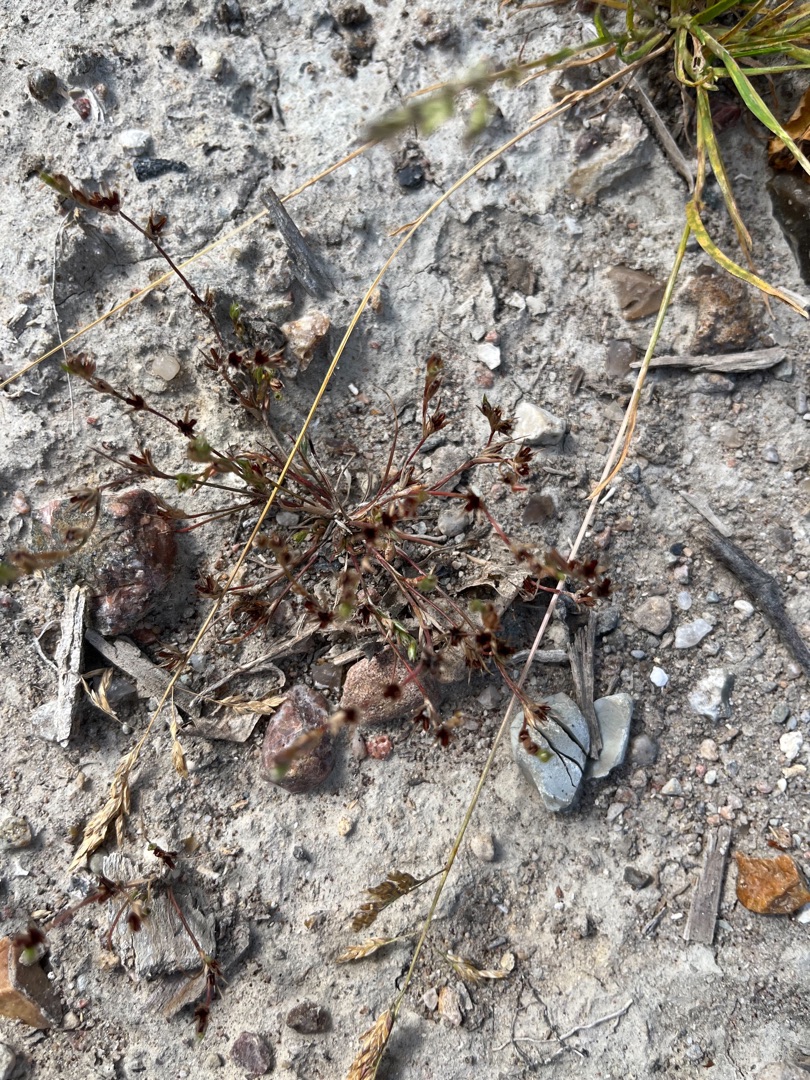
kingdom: Plantae
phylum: Tracheophyta
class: Liliopsida
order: Poales
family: Juncaceae
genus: Juncus
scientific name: Juncus bufonius
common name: Tudse-siv
